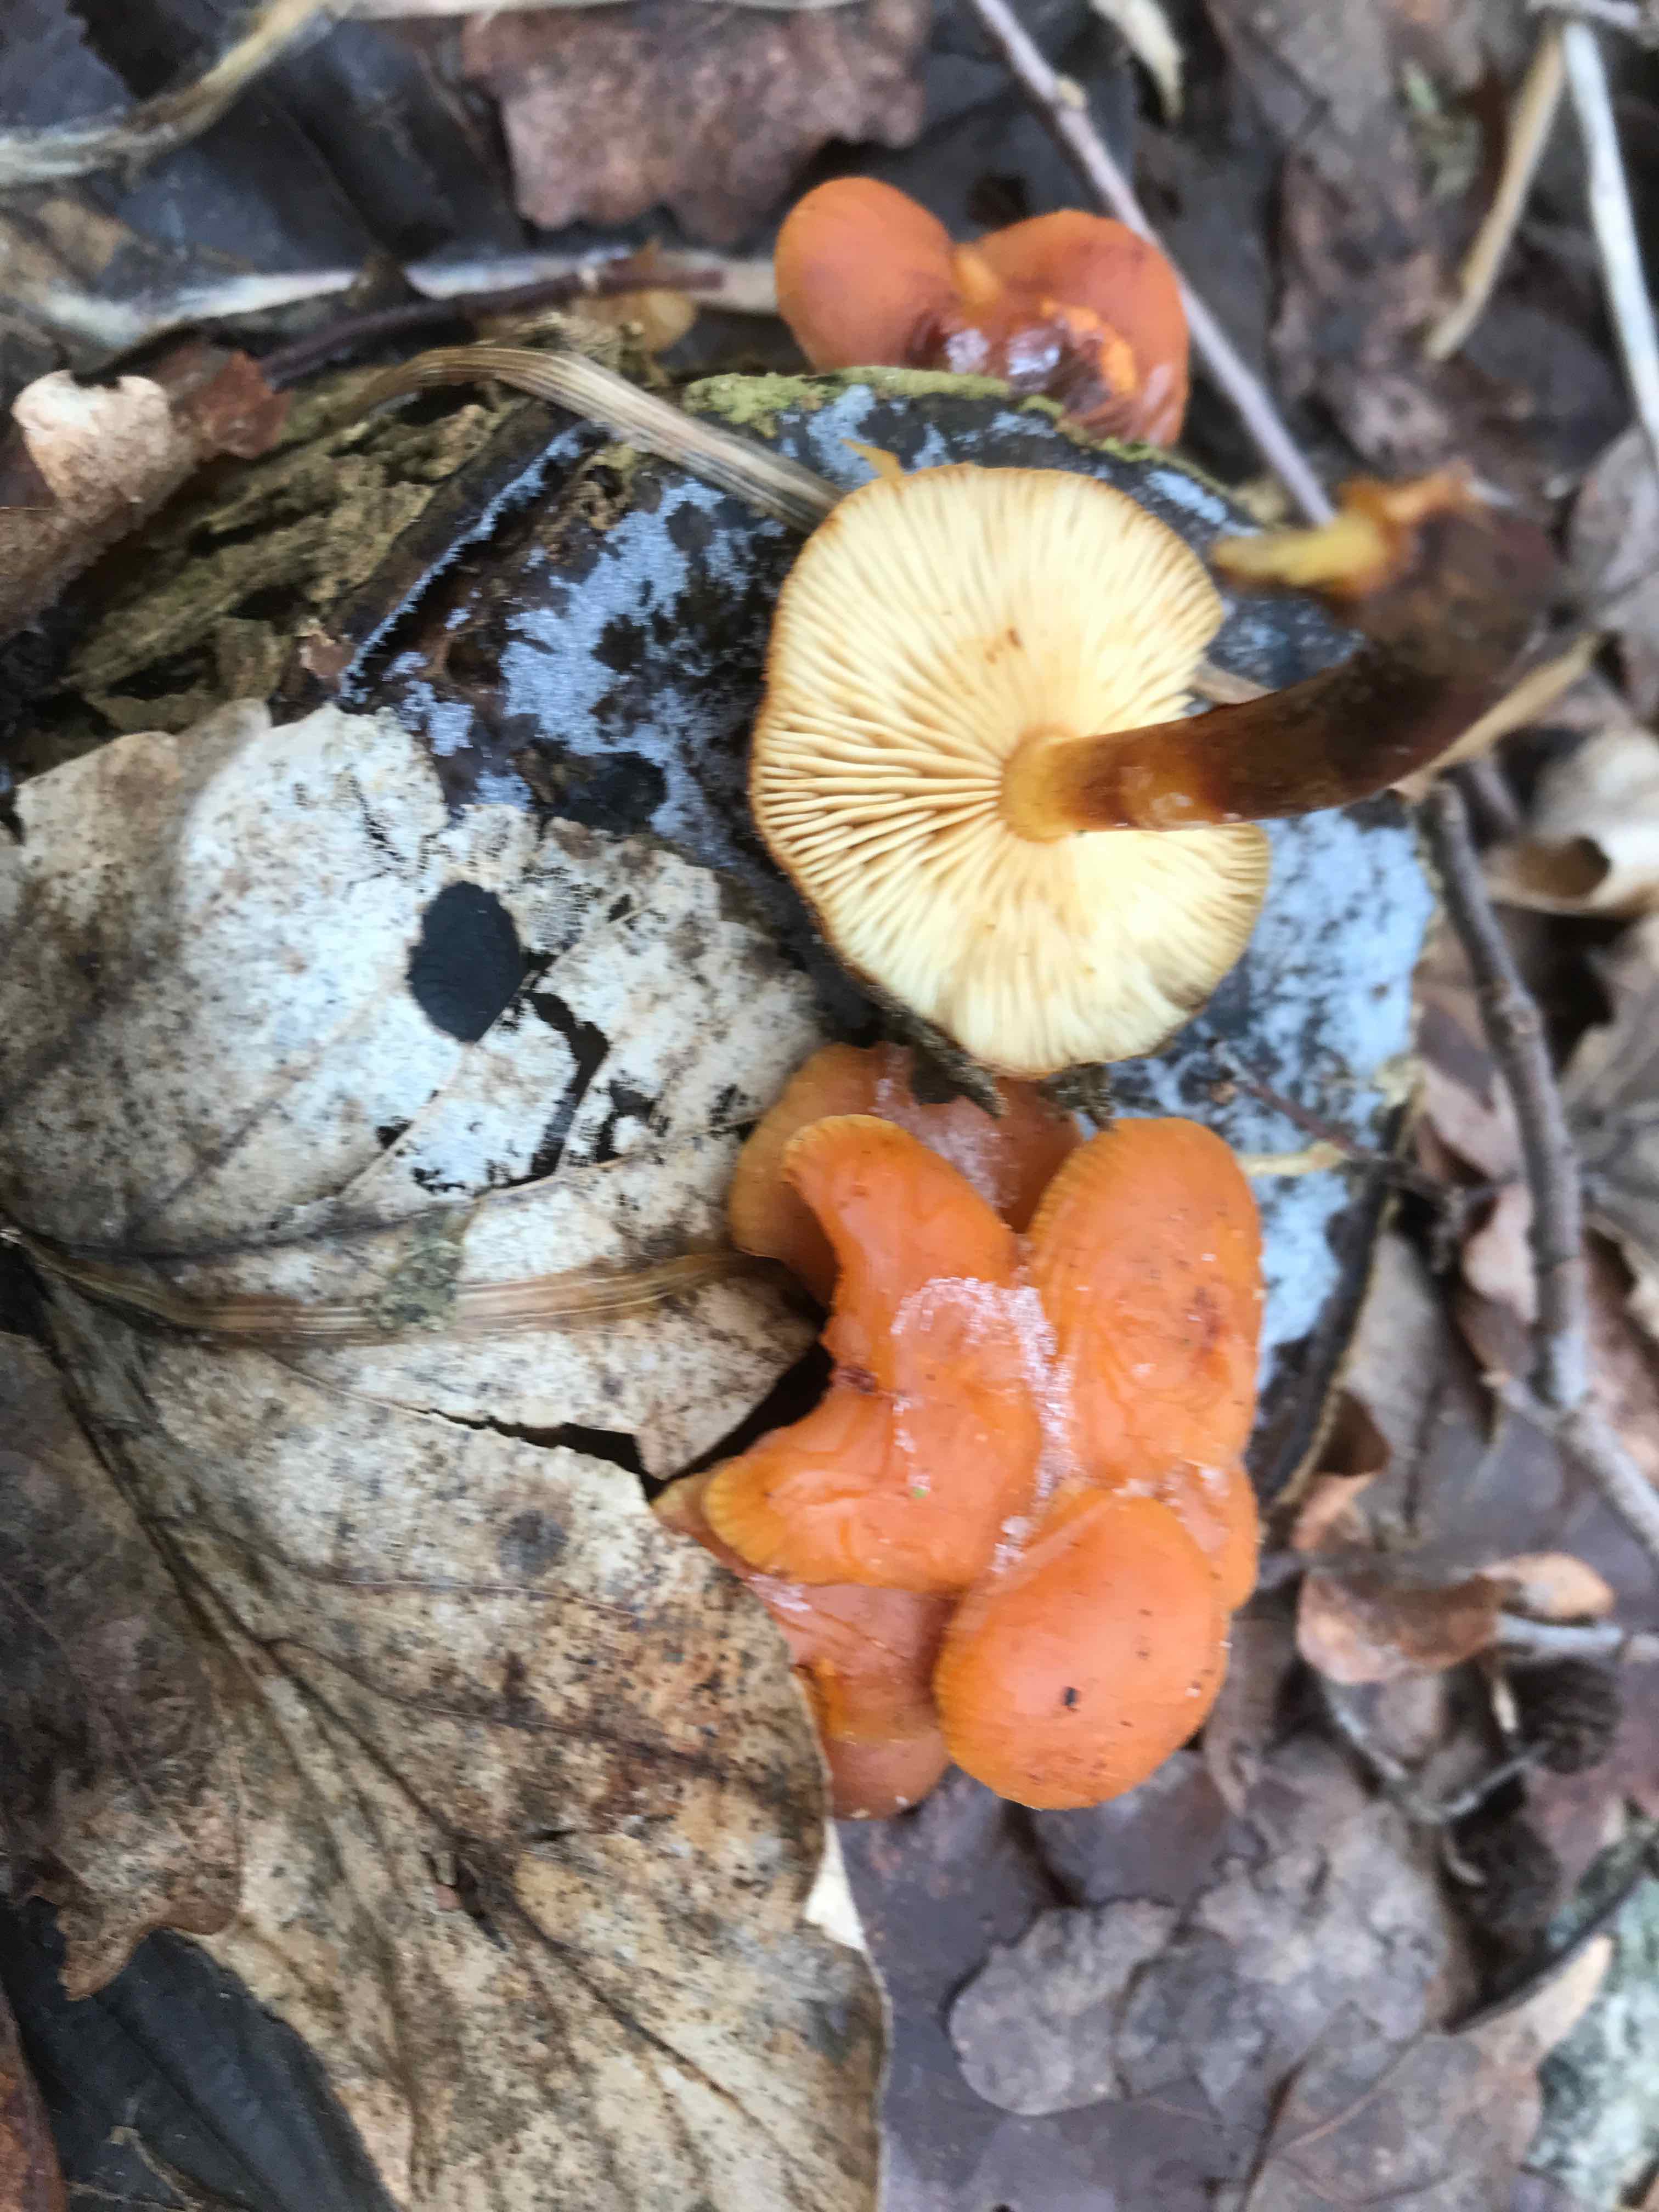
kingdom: Fungi
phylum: Basidiomycota
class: Agaricomycetes
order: Agaricales
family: Physalacriaceae
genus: Flammulina
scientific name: Flammulina velutipes
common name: gul fløjlsfod
